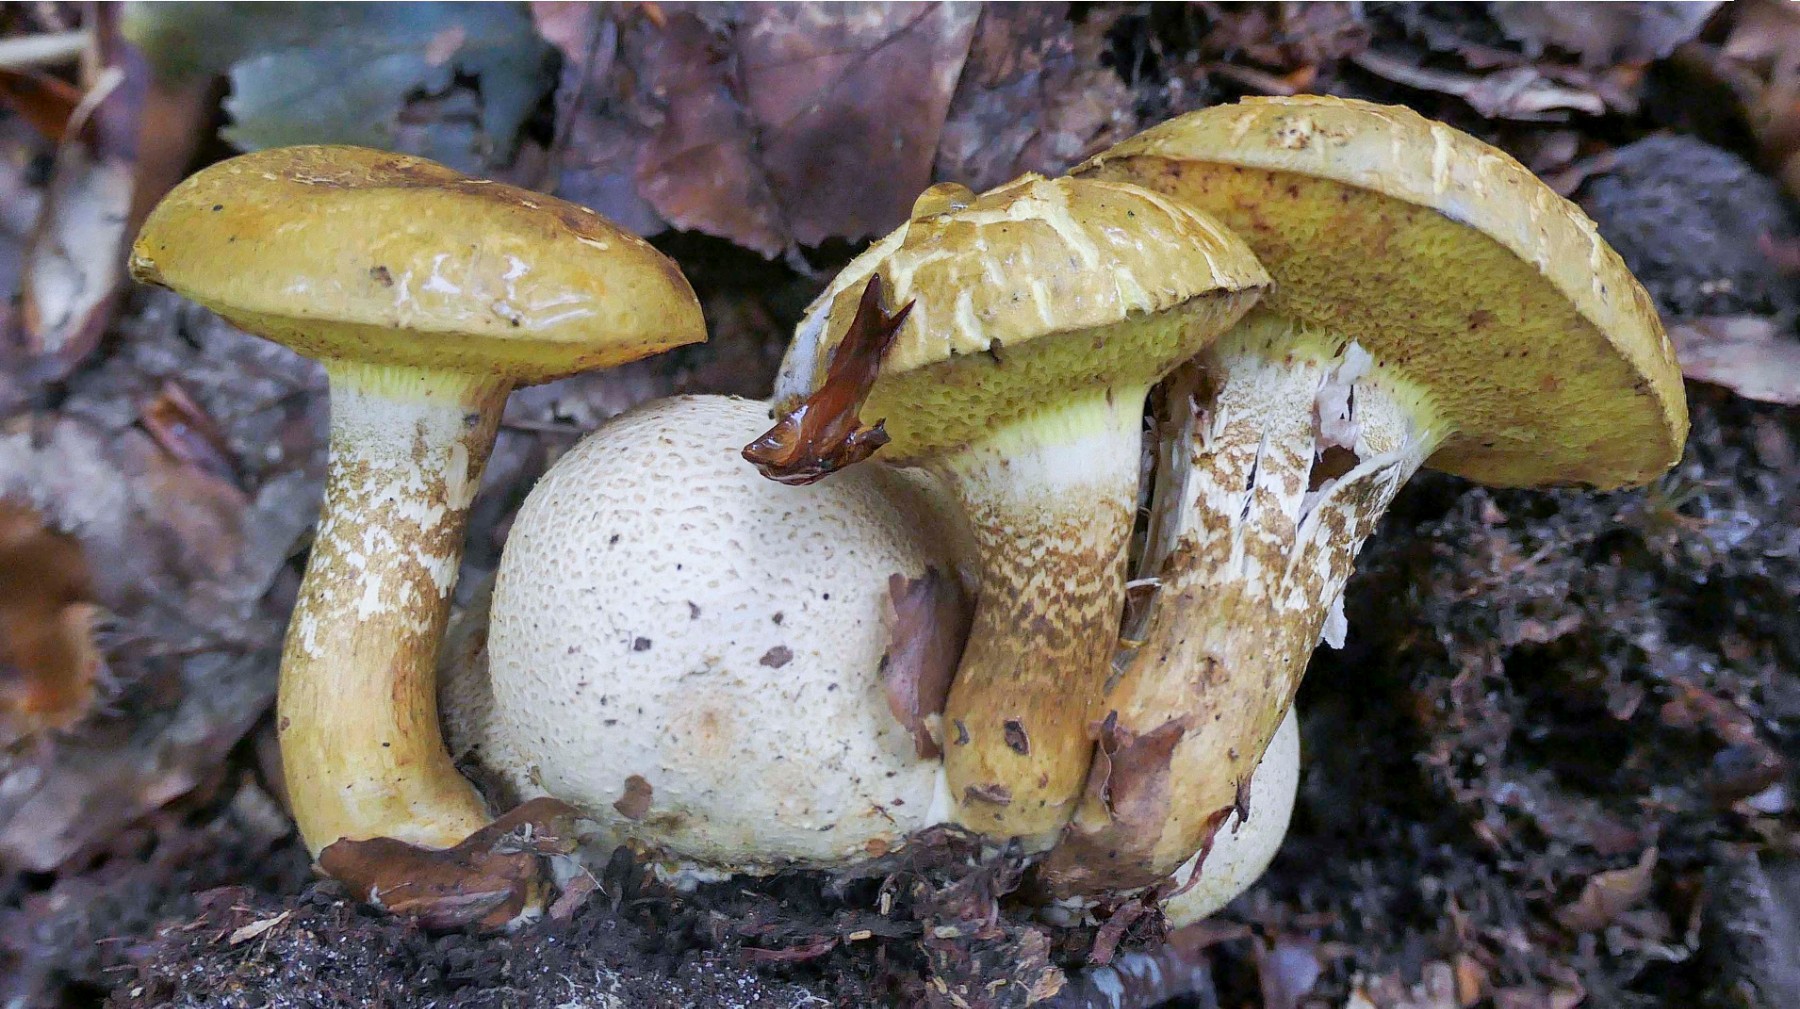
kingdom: Fungi
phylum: Basidiomycota
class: Agaricomycetes
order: Boletales
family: Boletaceae
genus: Pseudoboletus
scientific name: Pseudoboletus parasiticus
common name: snyltende rørhat
